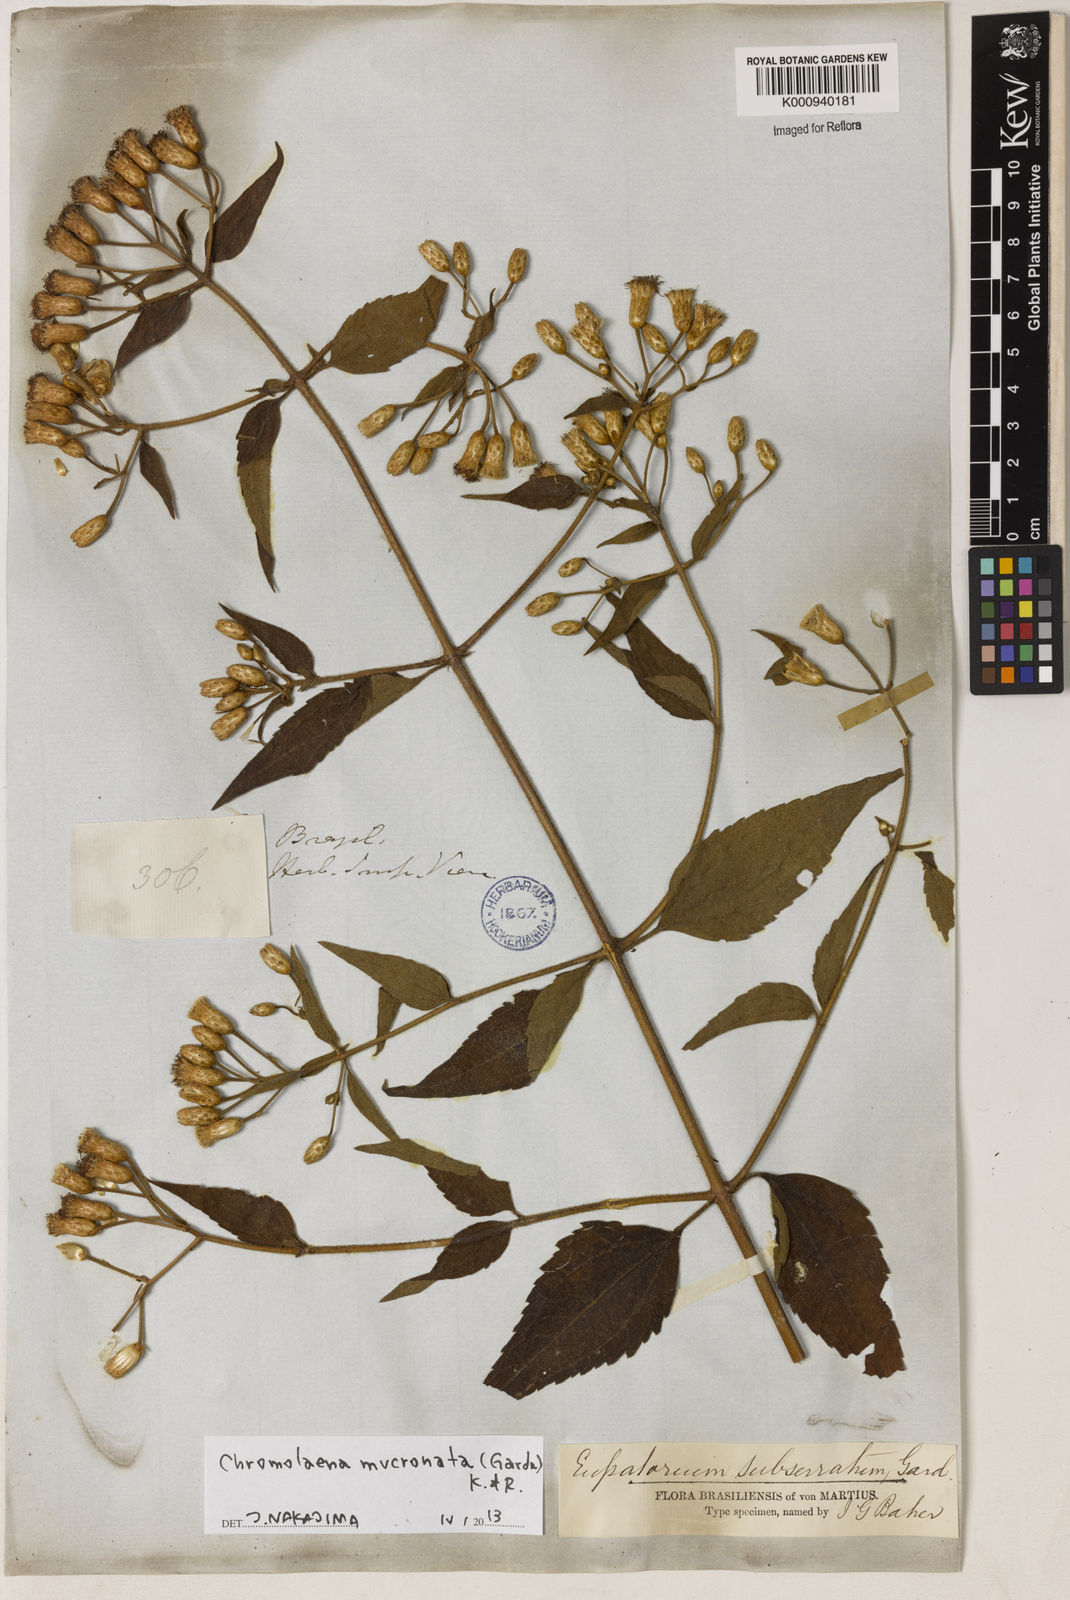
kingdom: Plantae
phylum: Tracheophyta
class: Magnoliopsida
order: Asterales
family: Asteraceae
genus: Chromolaena
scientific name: Chromolaena mucronata
